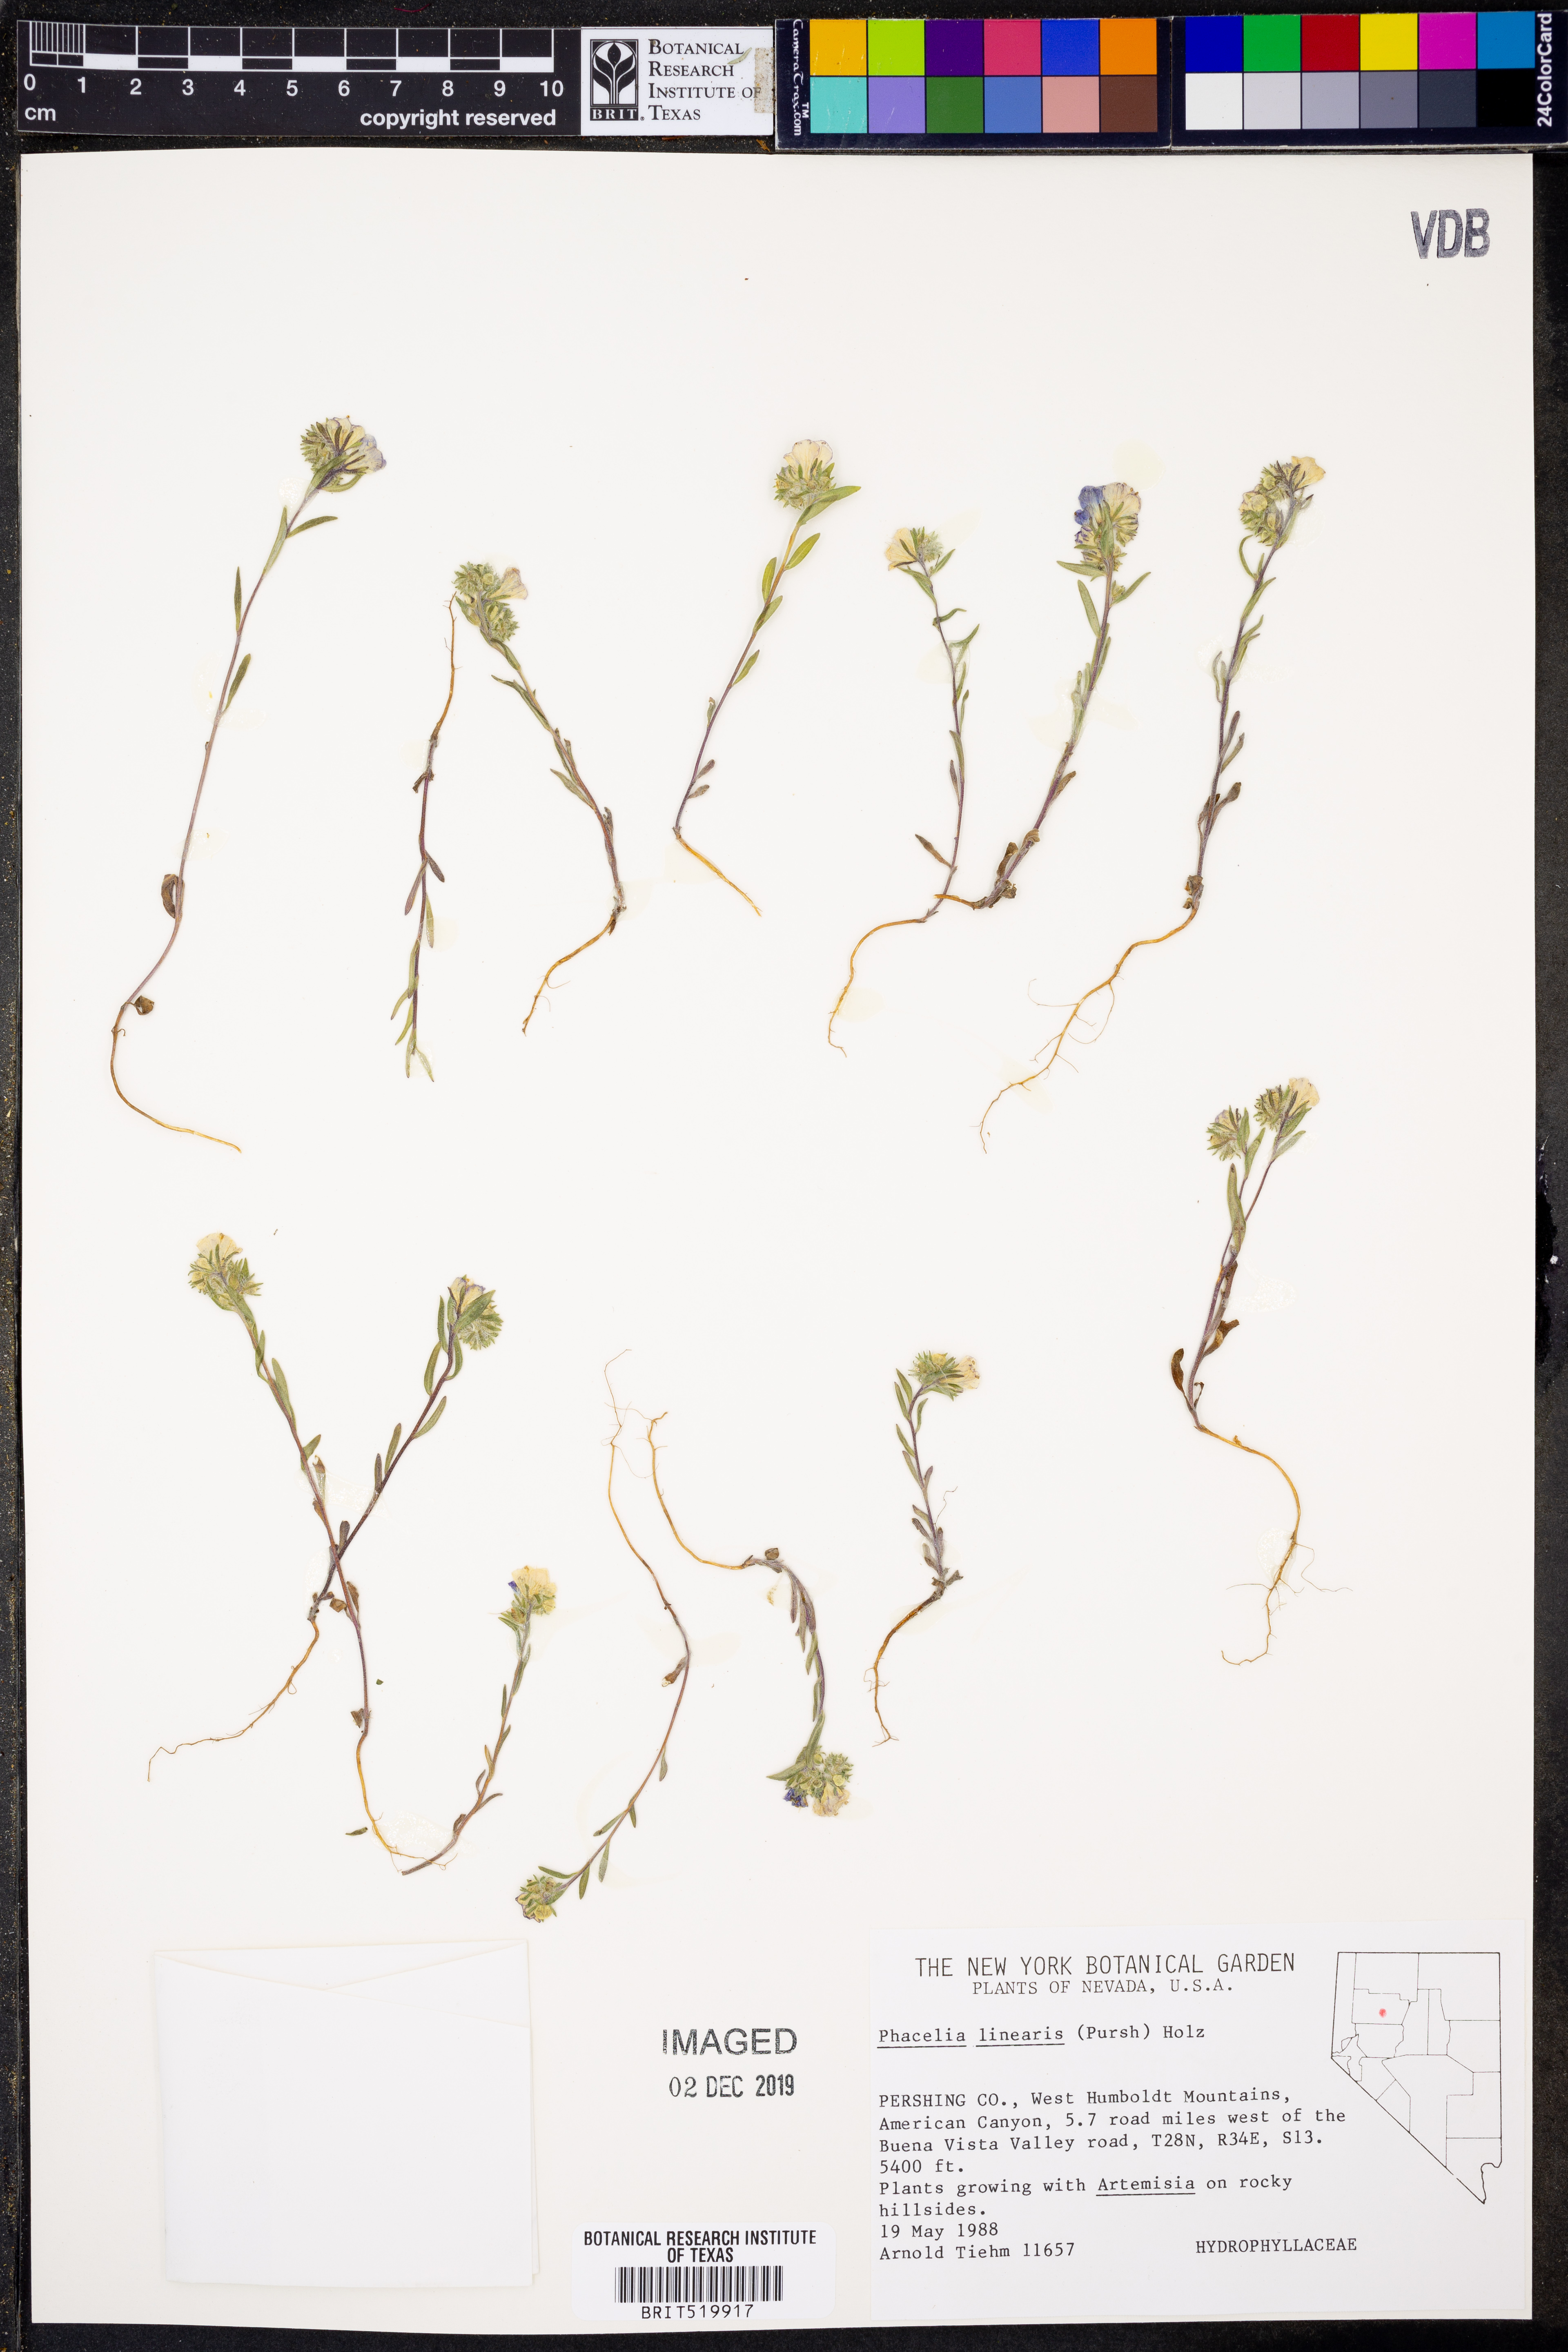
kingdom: Plantae
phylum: Tracheophyta
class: Magnoliopsida
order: Boraginales
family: Hydrophyllaceae
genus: Phacelia
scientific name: Phacelia linearis
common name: Linear-leaved phacelia
